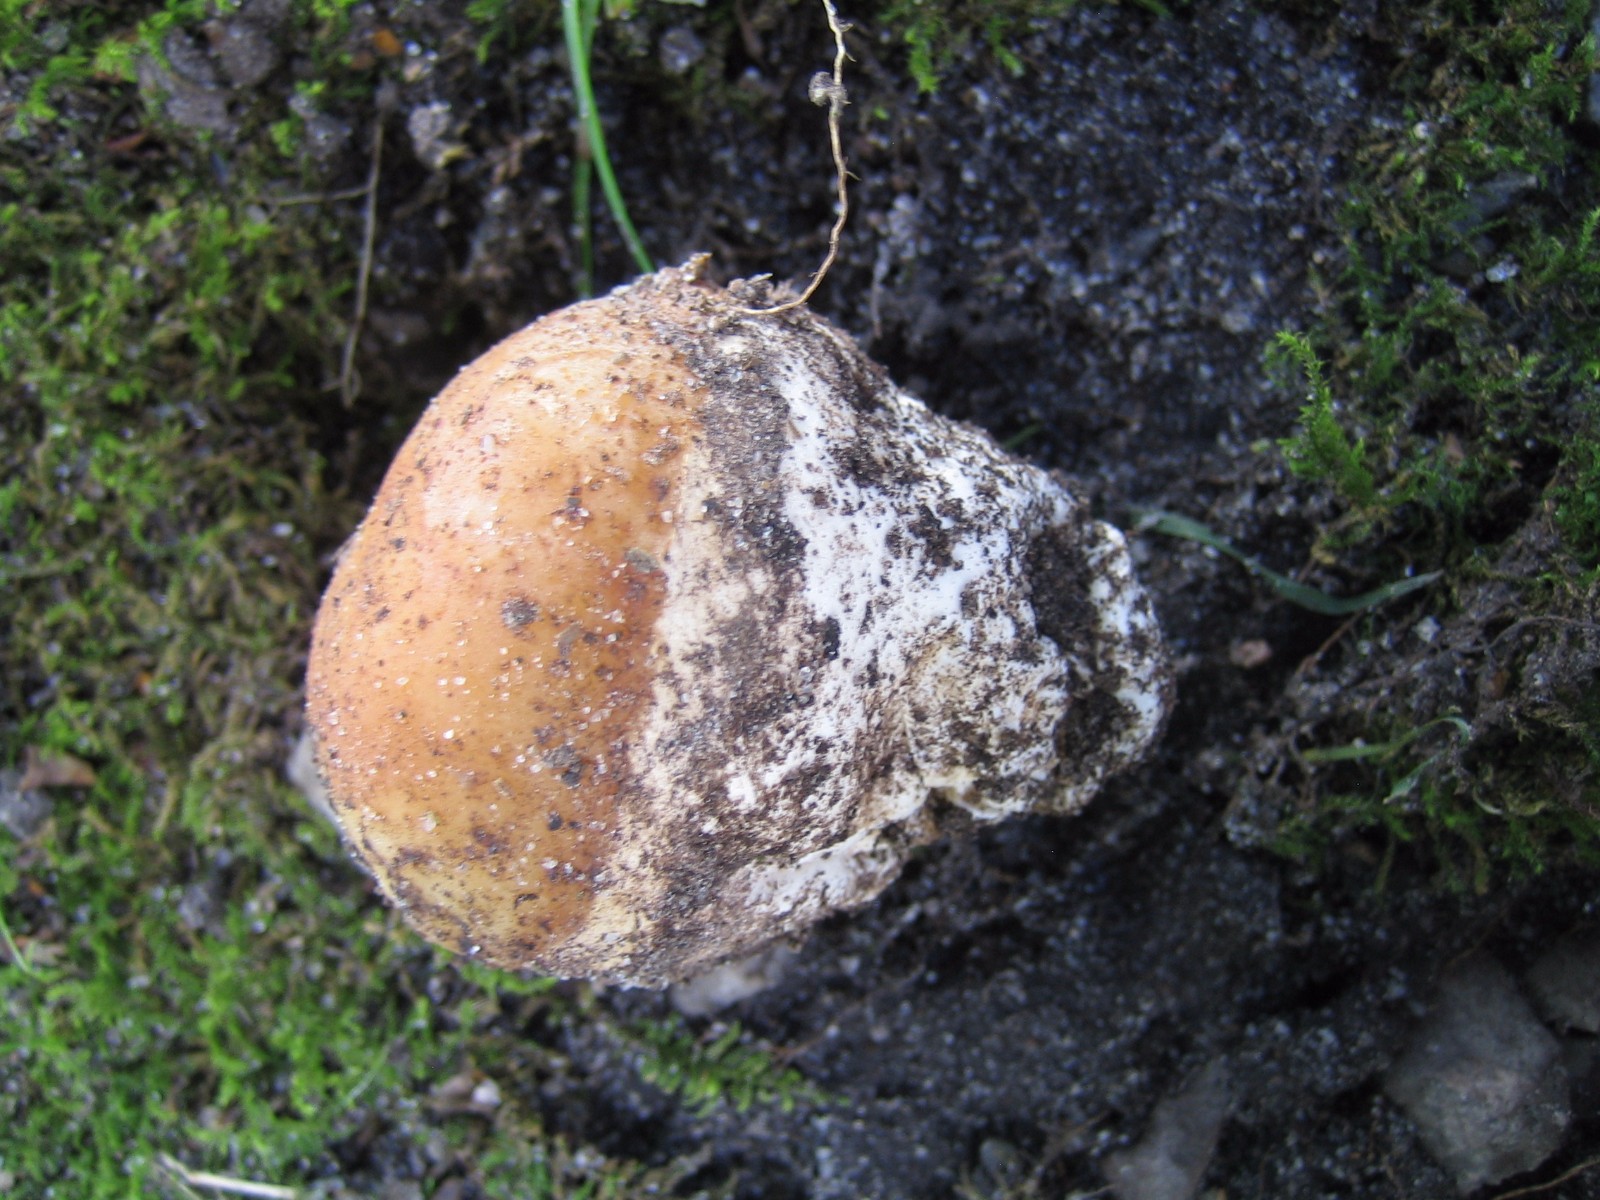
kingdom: Fungi
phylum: Basidiomycota
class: Agaricomycetes
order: Phallales
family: Phallaceae
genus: Phallus
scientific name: Phallus impudicus
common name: almindelig stinksvamp
